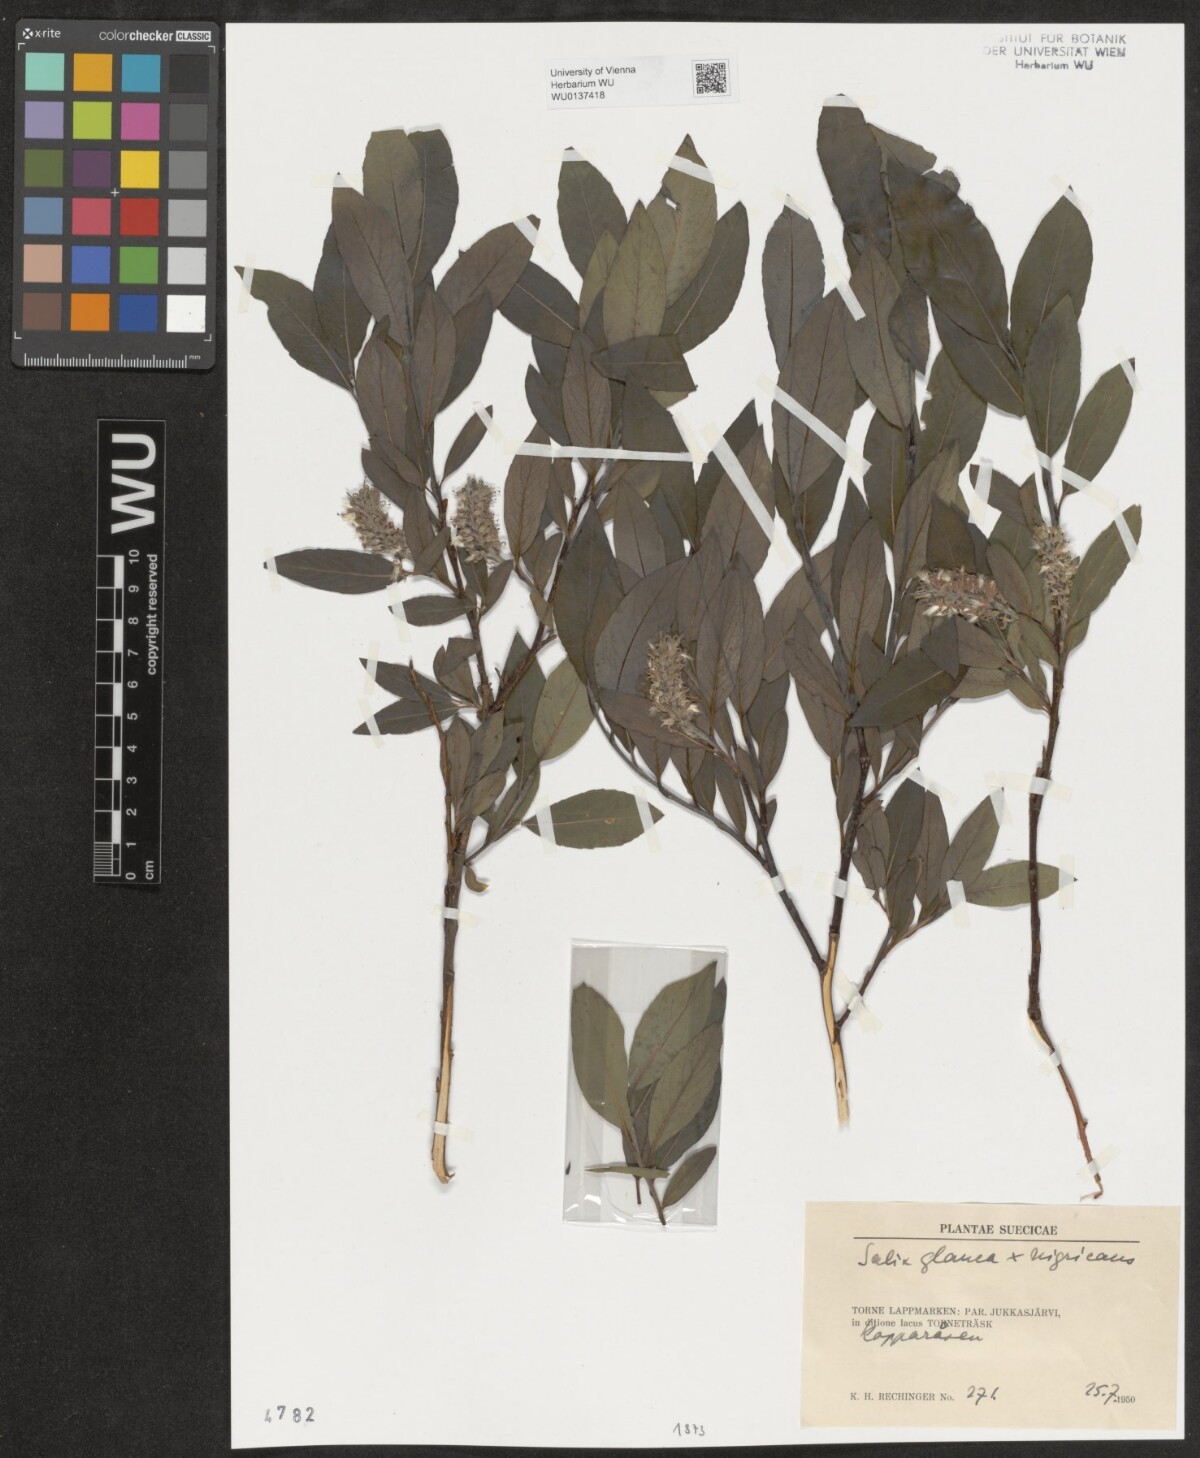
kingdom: Plantae
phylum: Tracheophyta
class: Magnoliopsida
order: Malpighiales
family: Salicaceae
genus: Salix
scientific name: Salix
